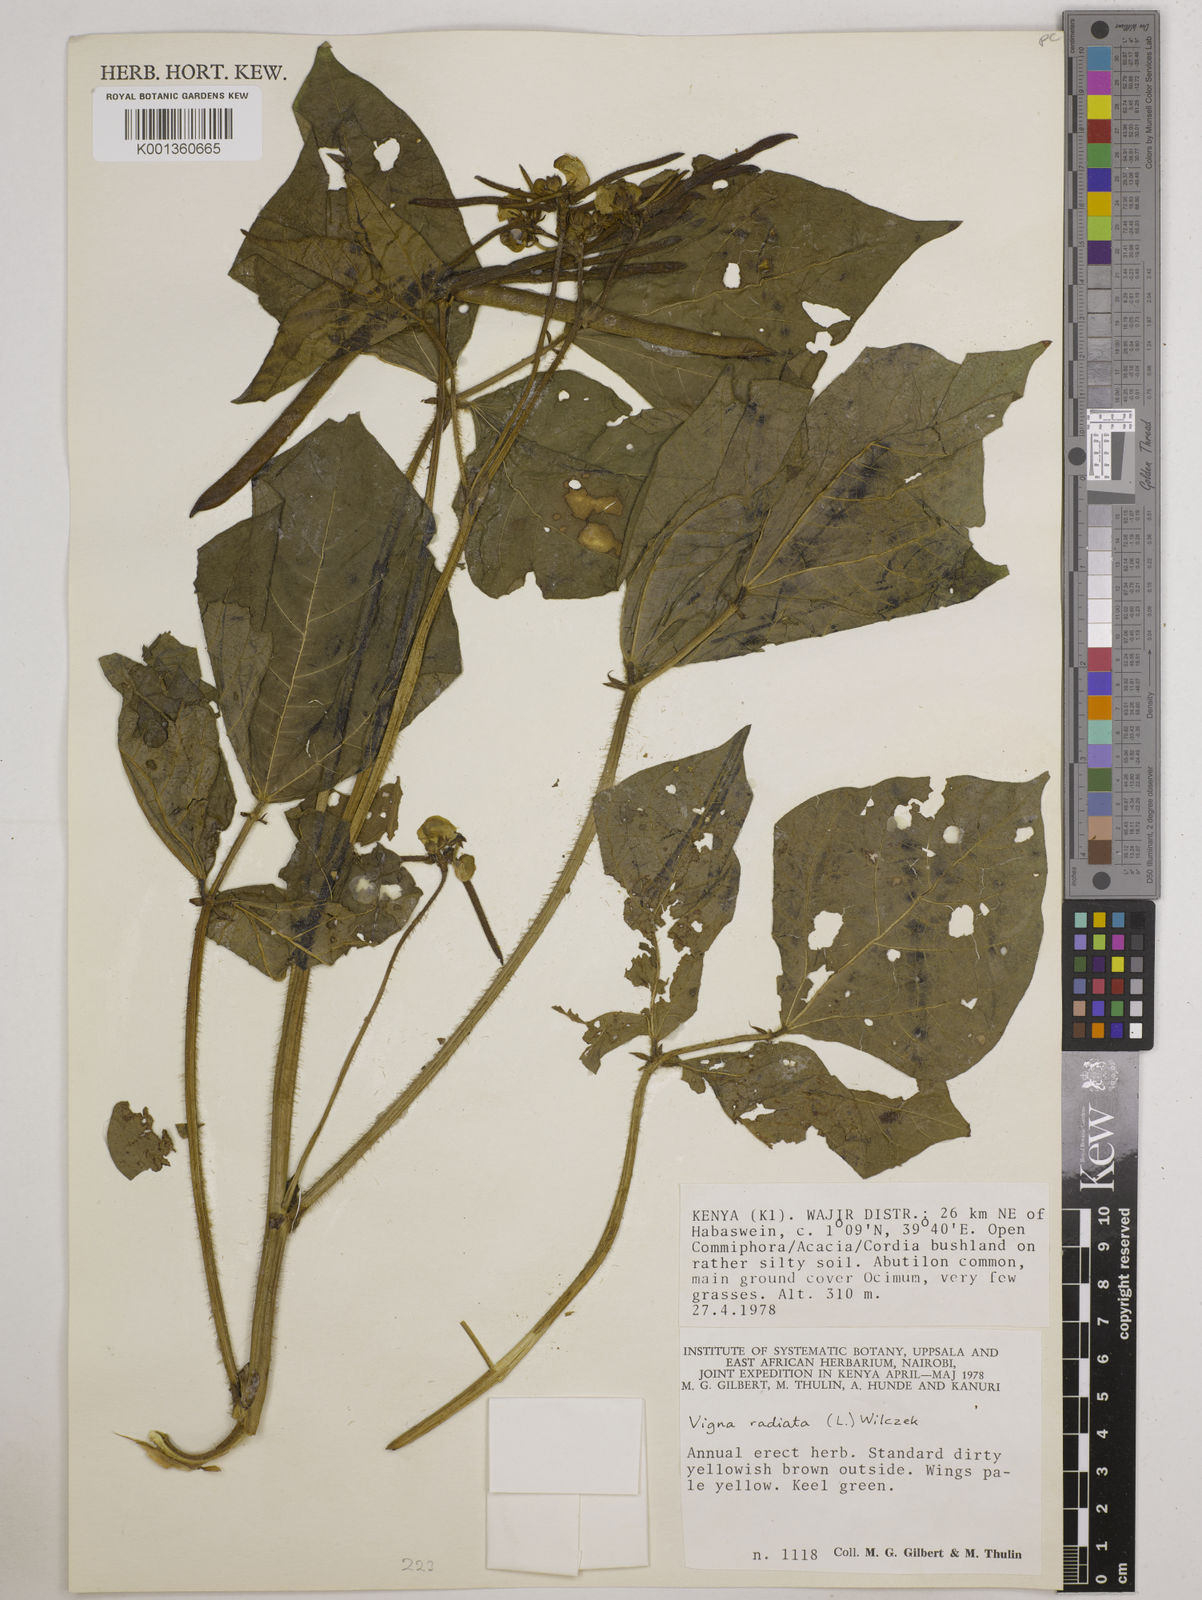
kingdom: Plantae
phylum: Tracheophyta
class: Magnoliopsida
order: Fabales
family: Fabaceae
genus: Vigna
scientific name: Vigna radiata
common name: Mung-bean
